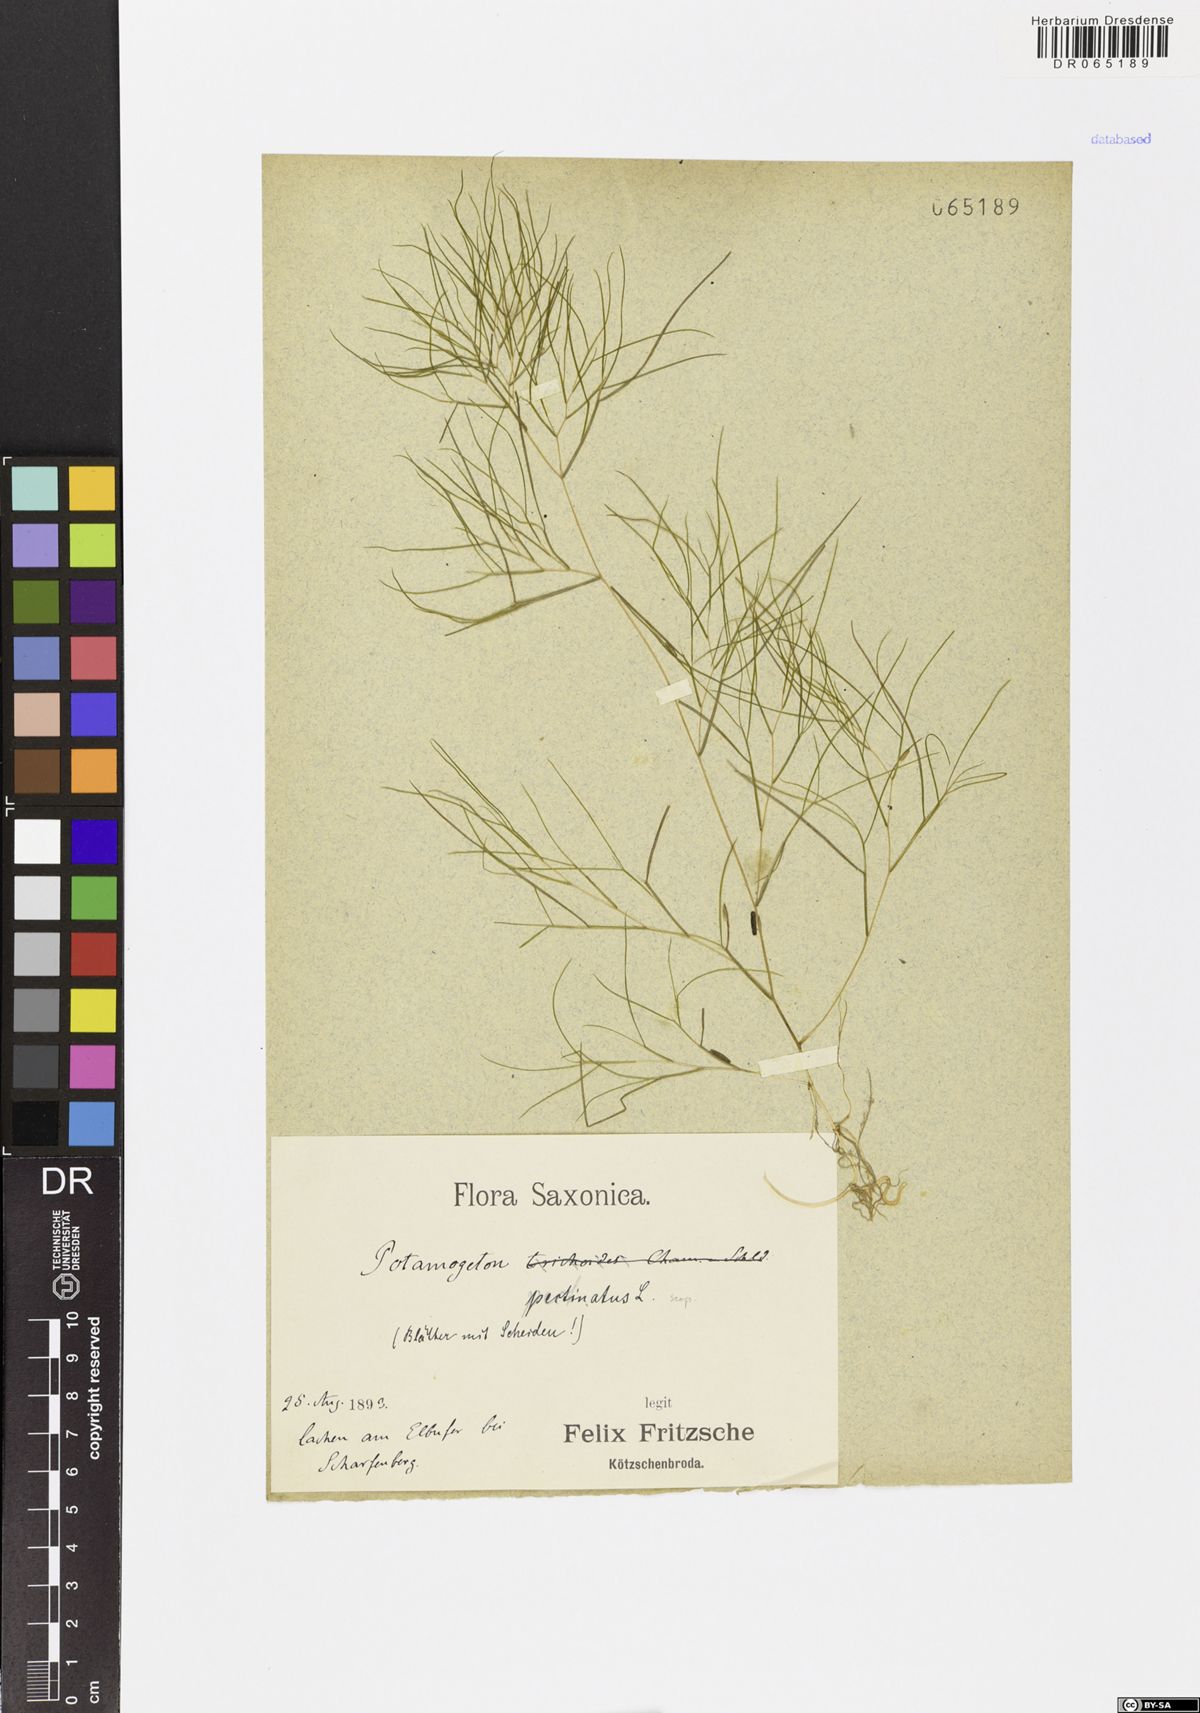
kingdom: Plantae
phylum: Tracheophyta
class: Liliopsida
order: Alismatales
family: Potamogetonaceae
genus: Stuckenia
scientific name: Stuckenia pectinata
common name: Sago pondweed
